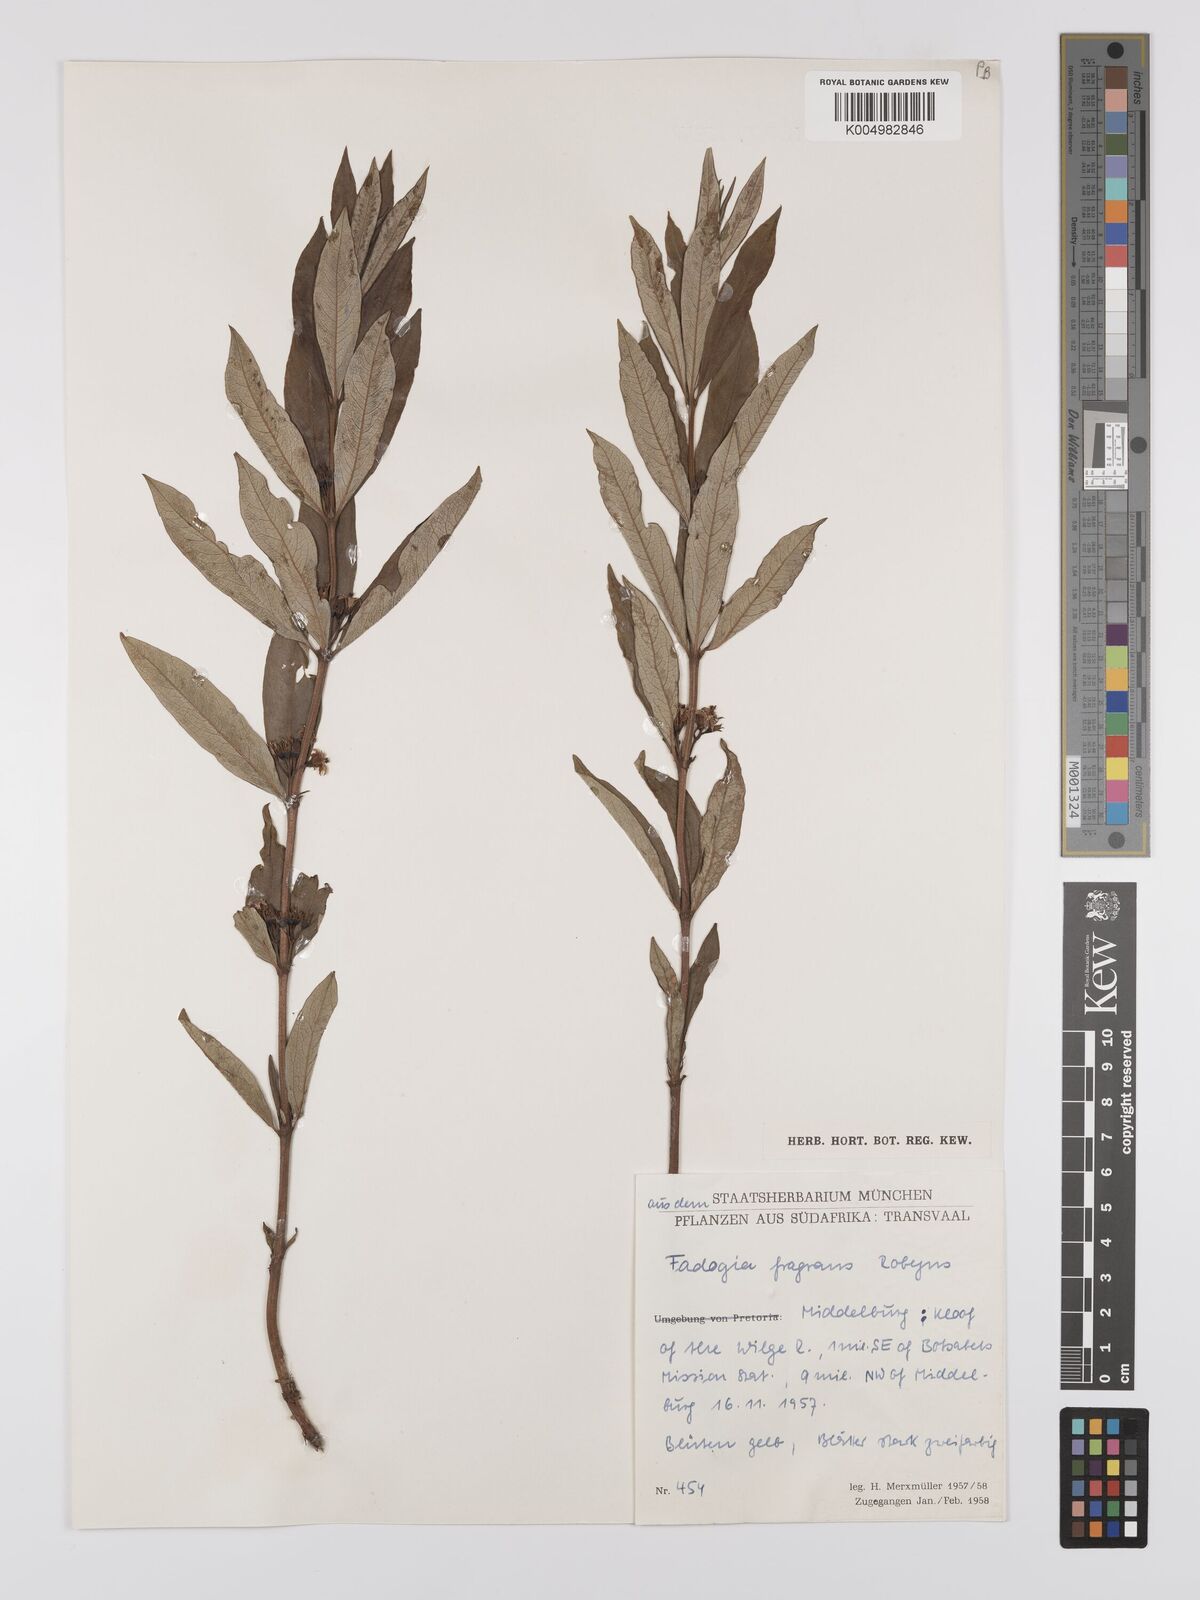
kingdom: Plantae
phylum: Tracheophyta
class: Magnoliopsida
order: Gentianales
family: Rubiaceae
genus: Fadogia
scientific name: Fadogia fragrans
